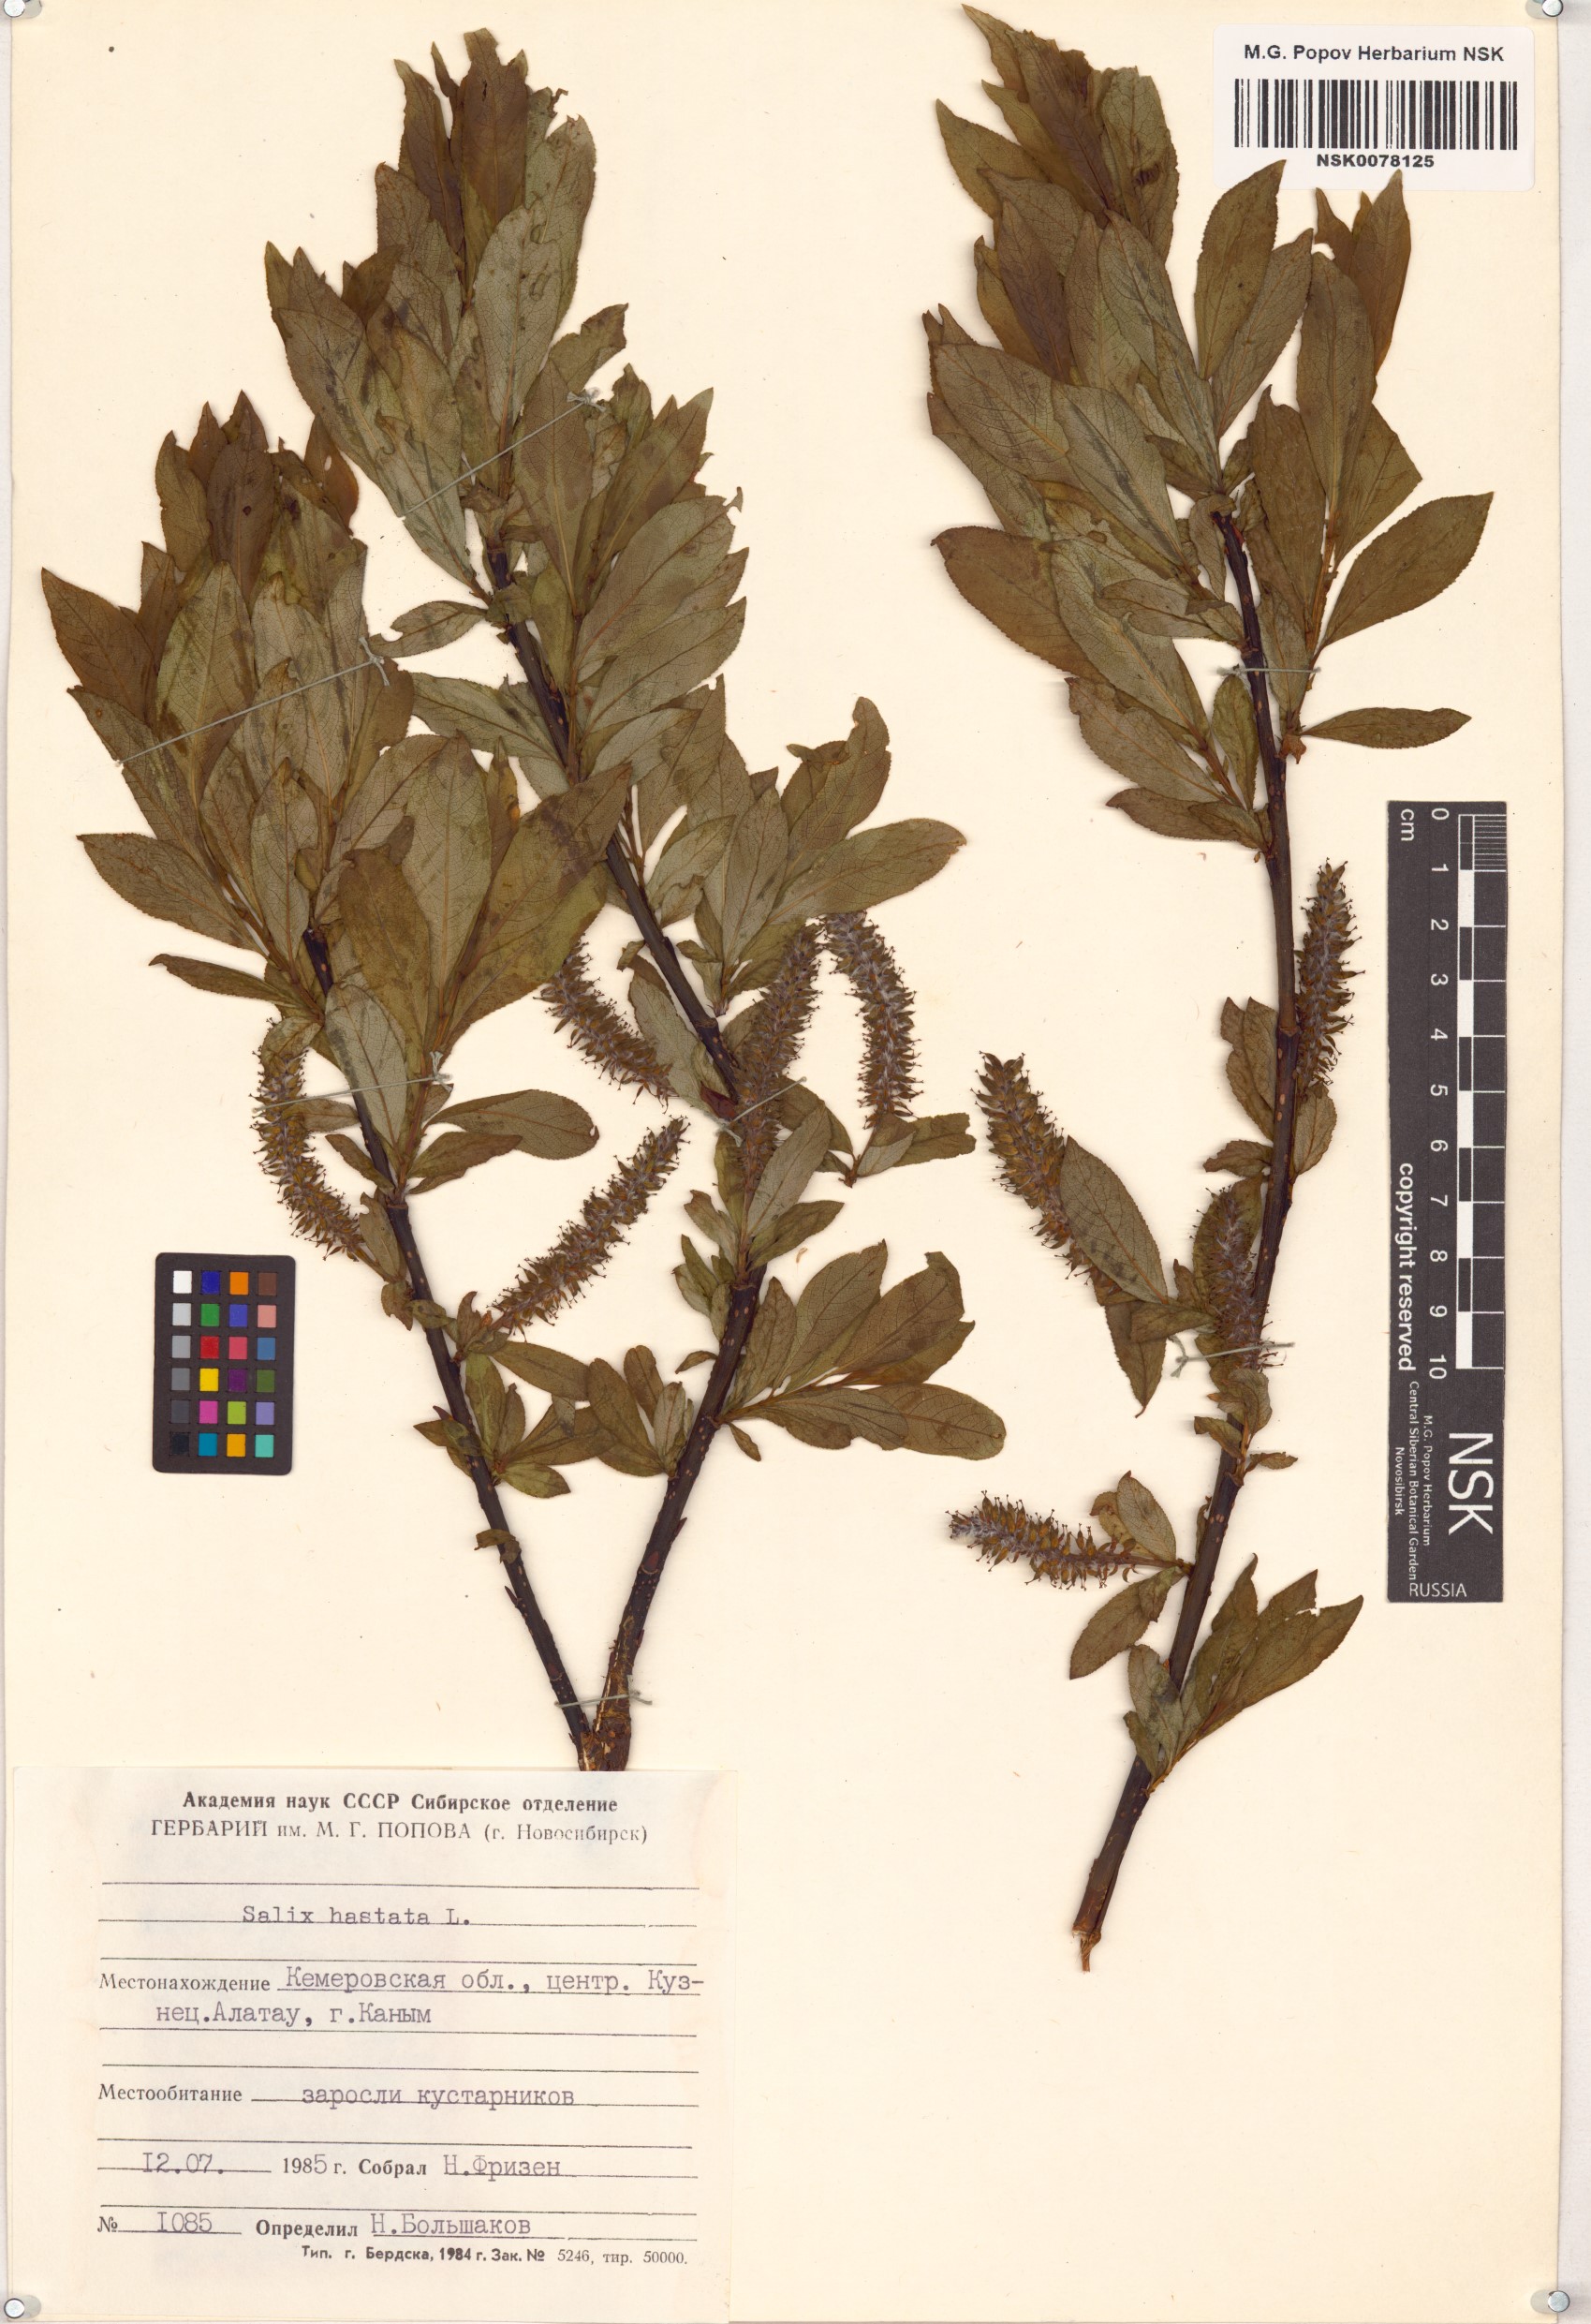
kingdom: Plantae
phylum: Tracheophyta
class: Magnoliopsida
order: Malpighiales
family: Salicaceae
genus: Salix
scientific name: Salix hastata
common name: Halberd willow
